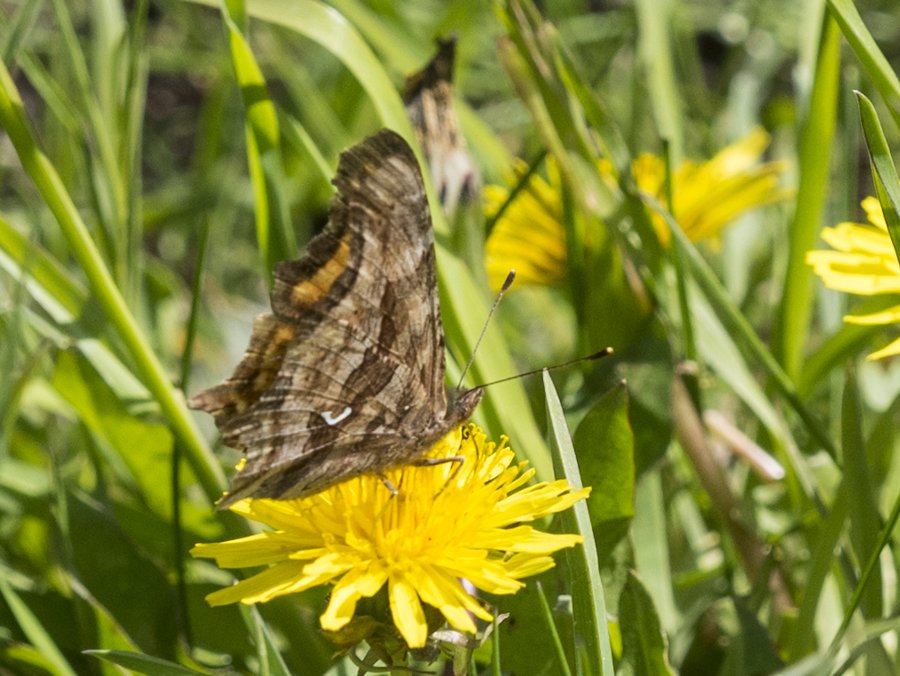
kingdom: Animalia
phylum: Arthropoda
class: Insecta
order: Lepidoptera
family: Nymphalidae
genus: Polygonia
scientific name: Polygonia satyrus
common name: Satyr Comma
